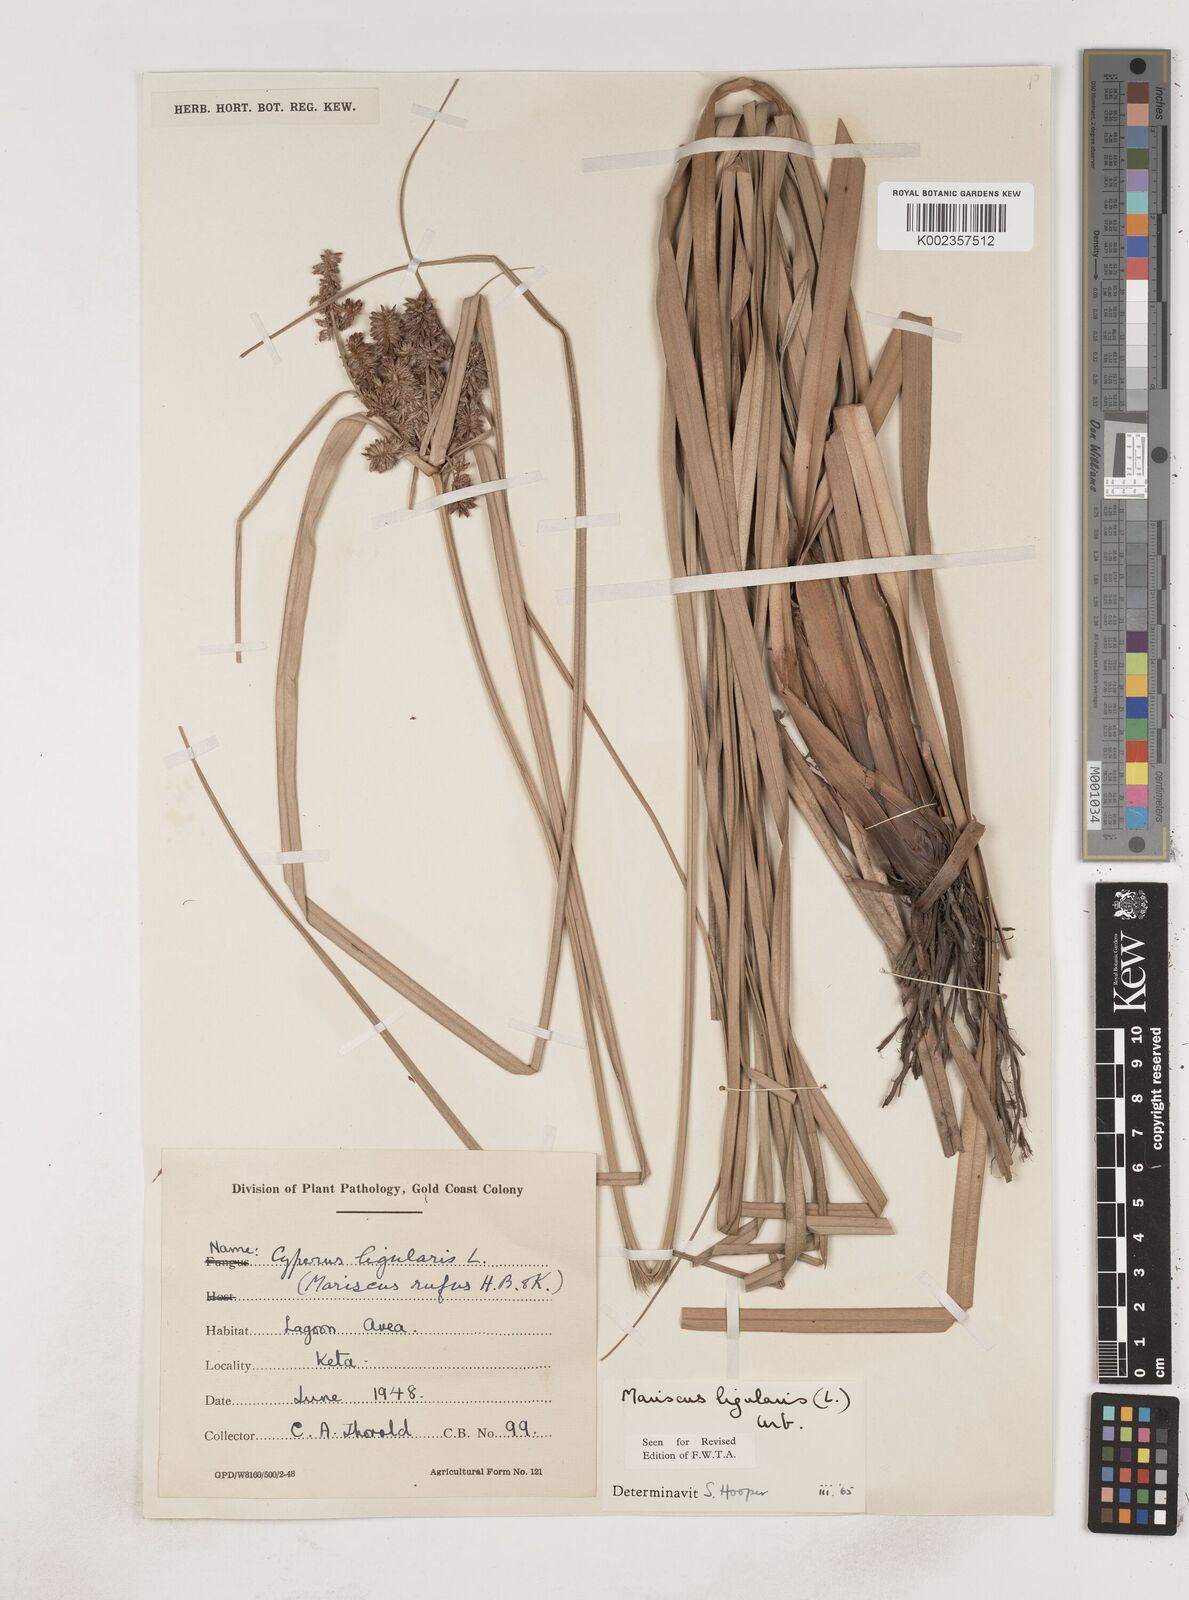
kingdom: Plantae
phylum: Tracheophyta
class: Liliopsida
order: Poales
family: Cyperaceae
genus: Cyperus
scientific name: Cyperus ligularis
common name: Swamp flat sedge
